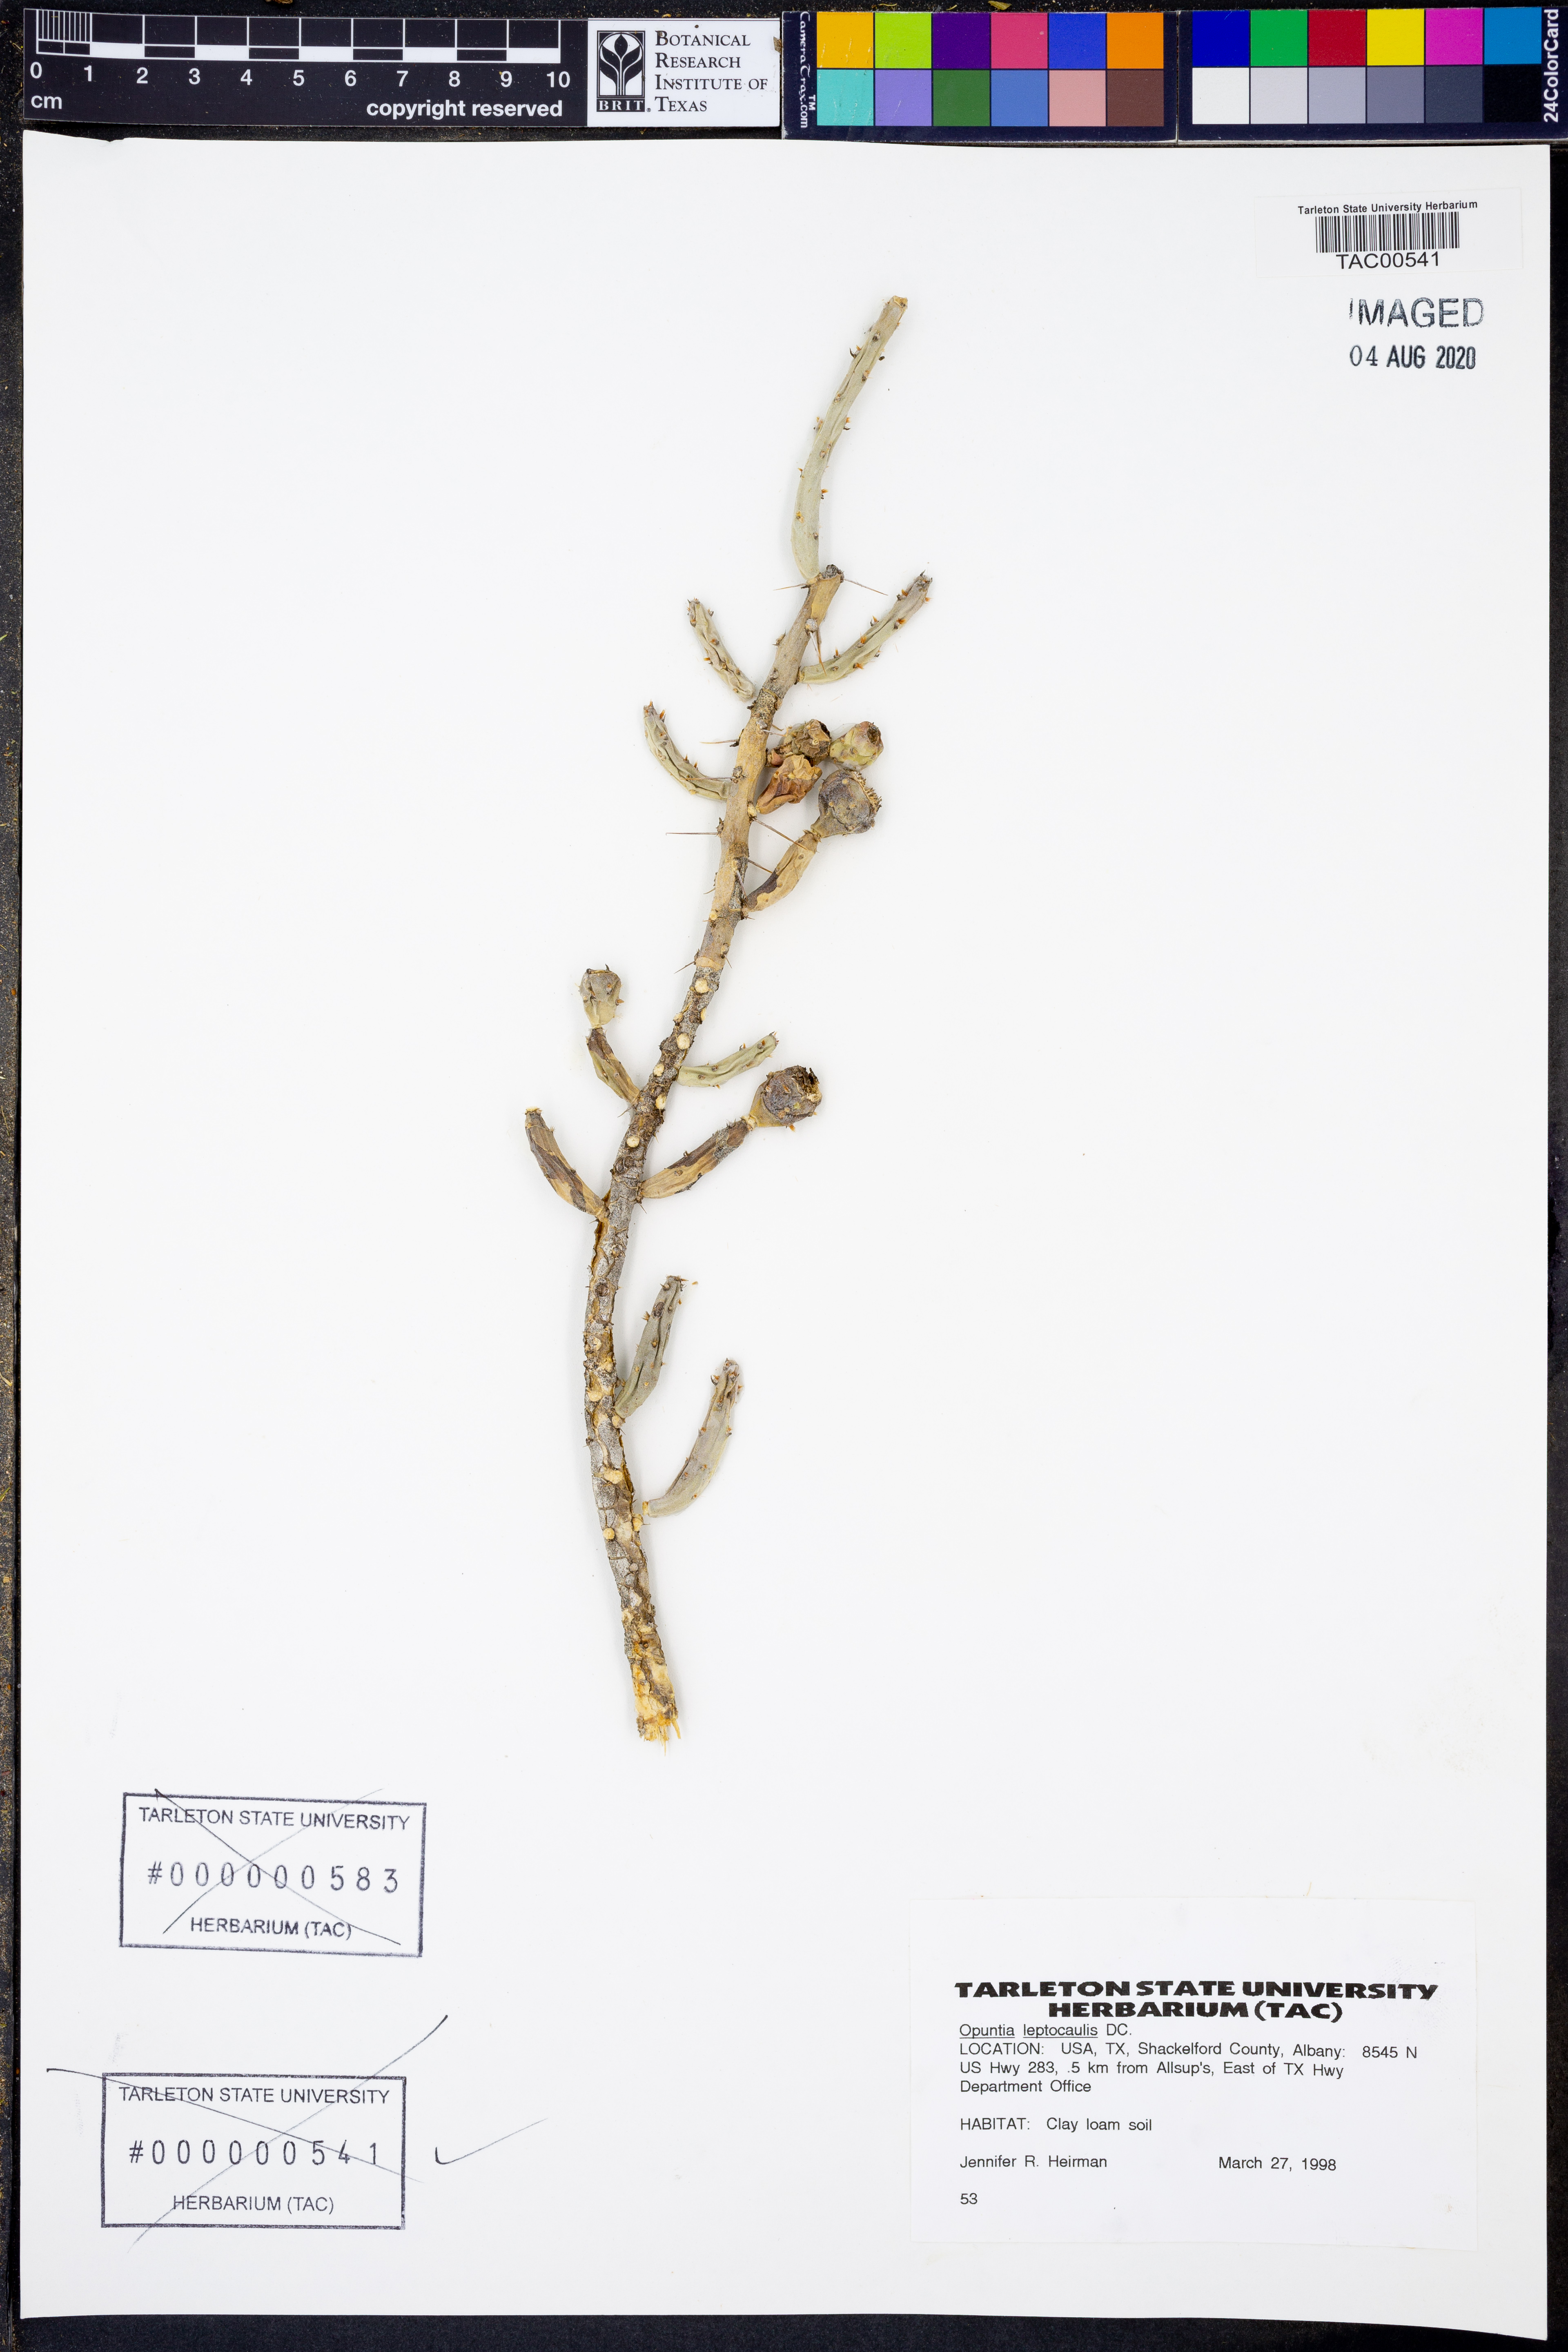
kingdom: Plantae
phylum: Tracheophyta
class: Magnoliopsida
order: Caryophyllales
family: Cactaceae
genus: Cylindropuntia
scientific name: Cylindropuntia leptocaulis
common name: Christmas cactus
